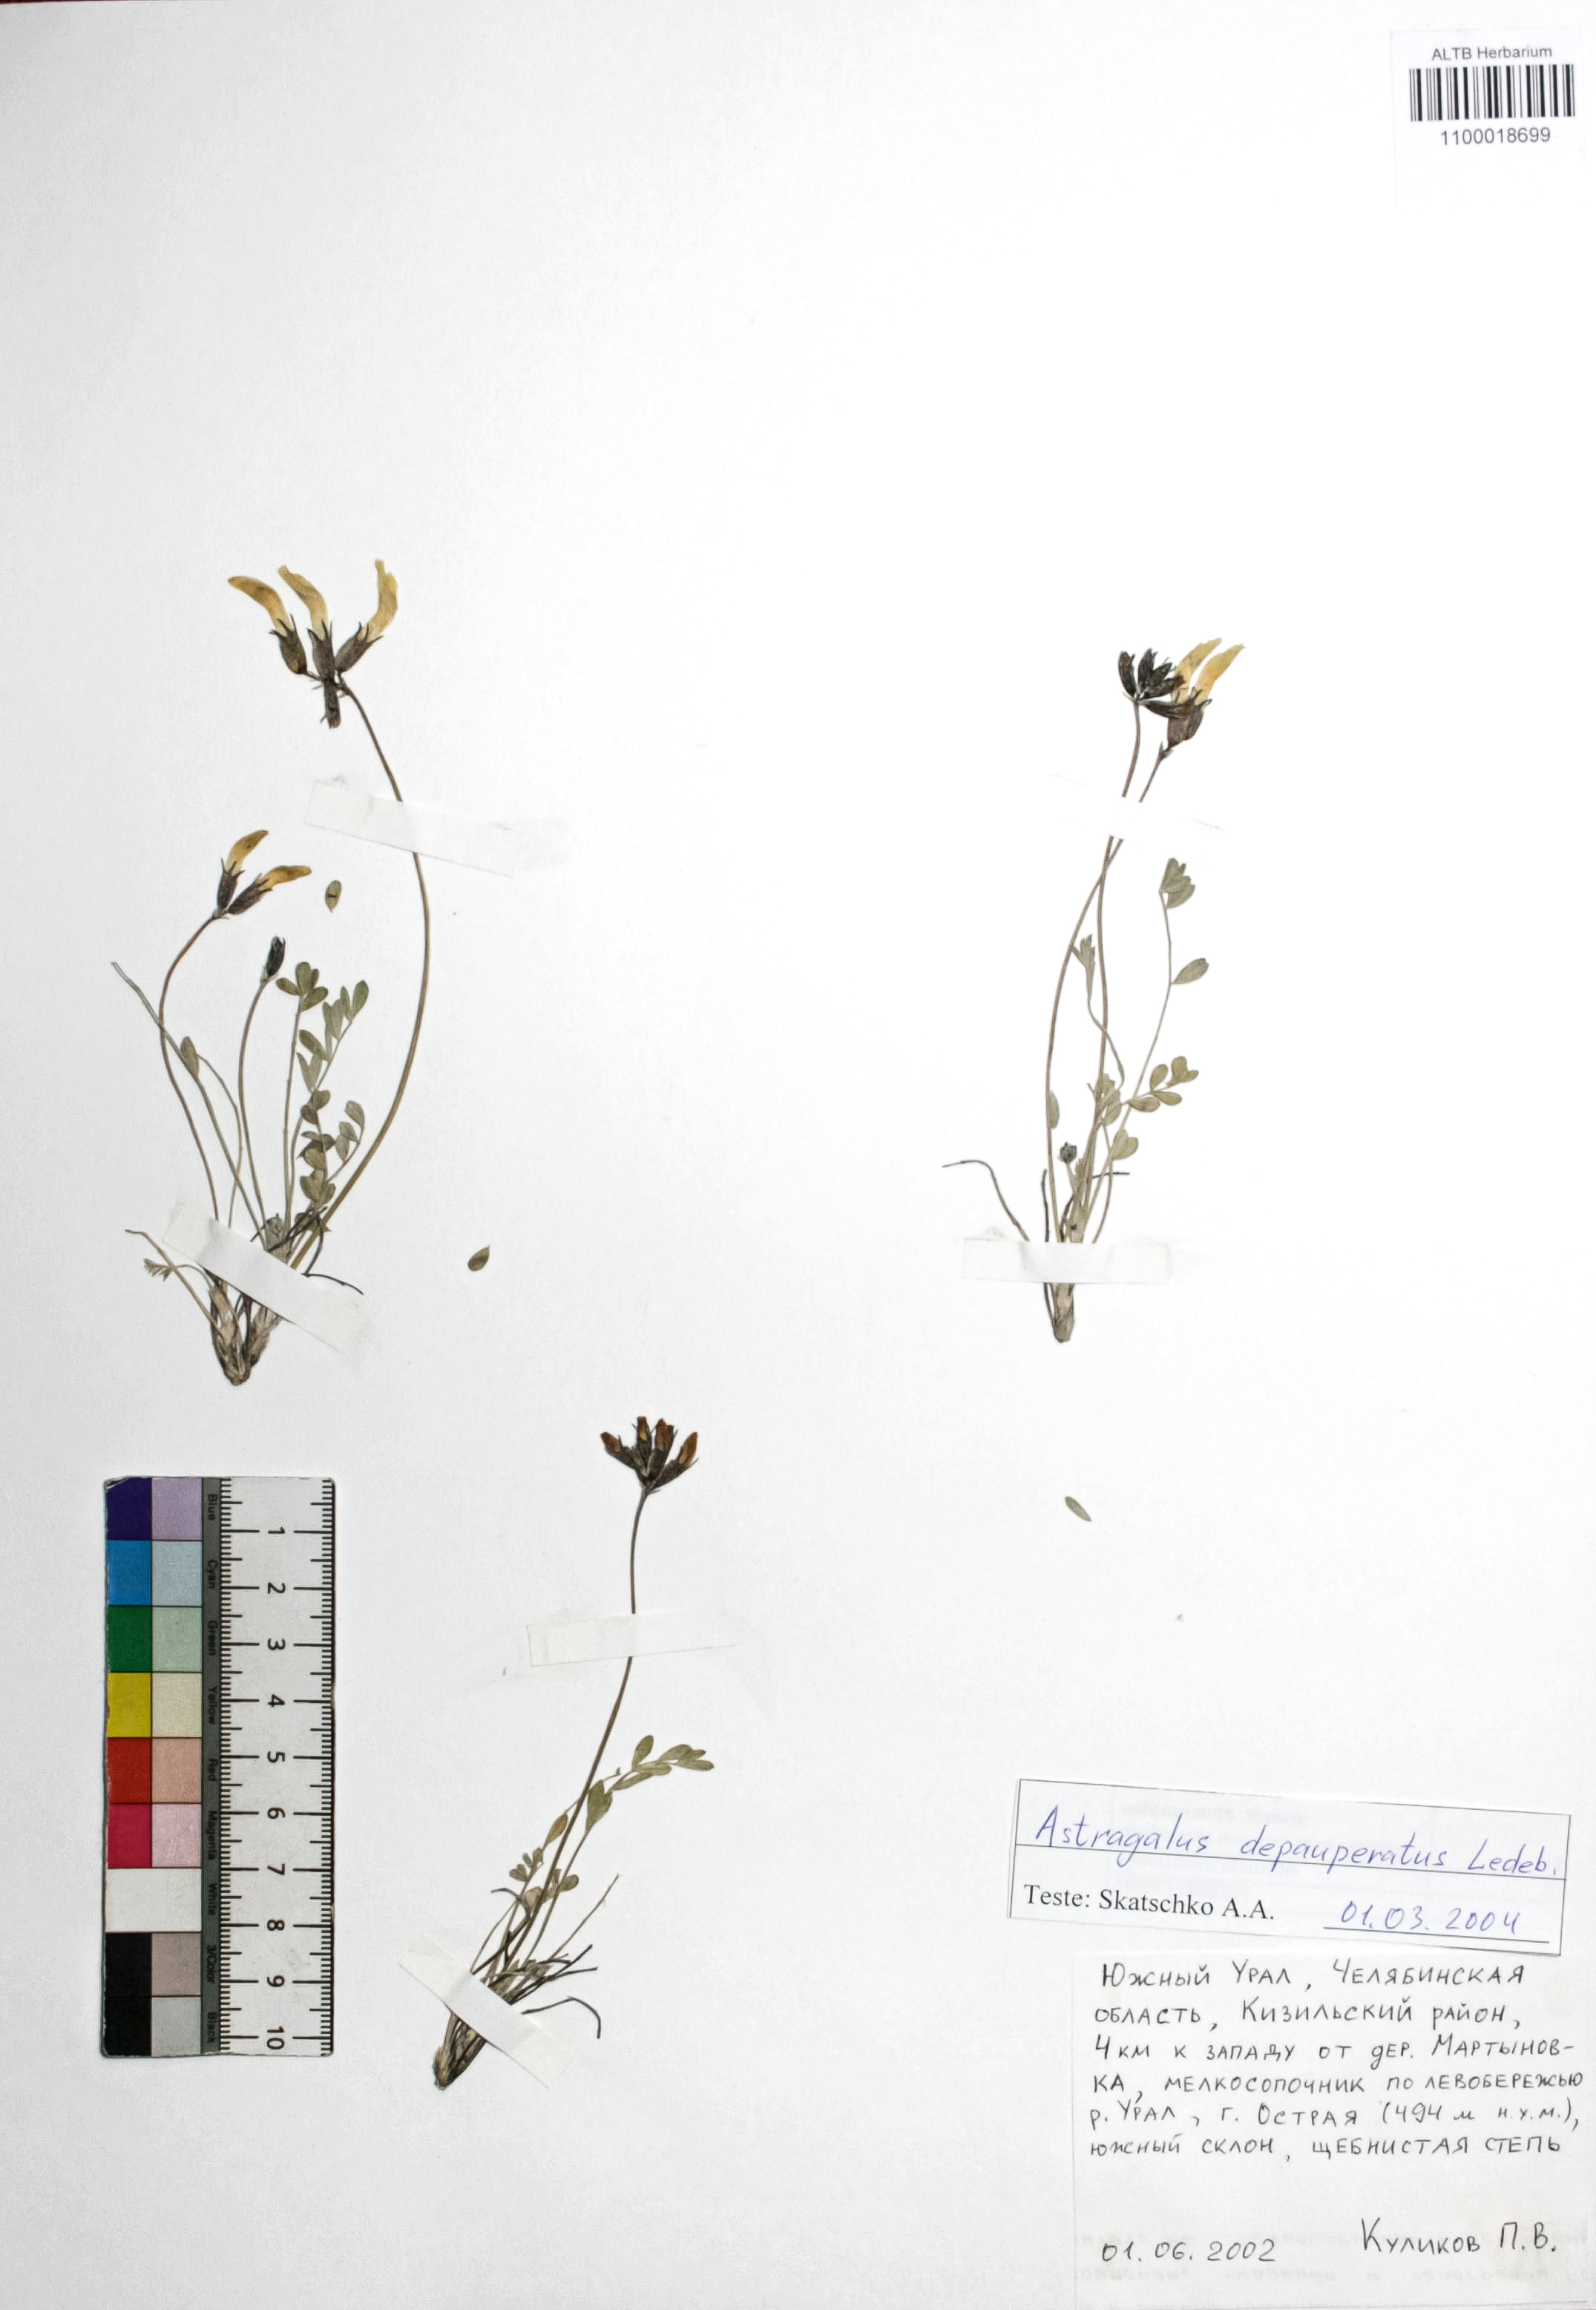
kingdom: Plantae
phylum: Tracheophyta
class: Magnoliopsida
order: Fabales
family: Fabaceae
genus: Astragalus
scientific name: Astragalus depauperatus
